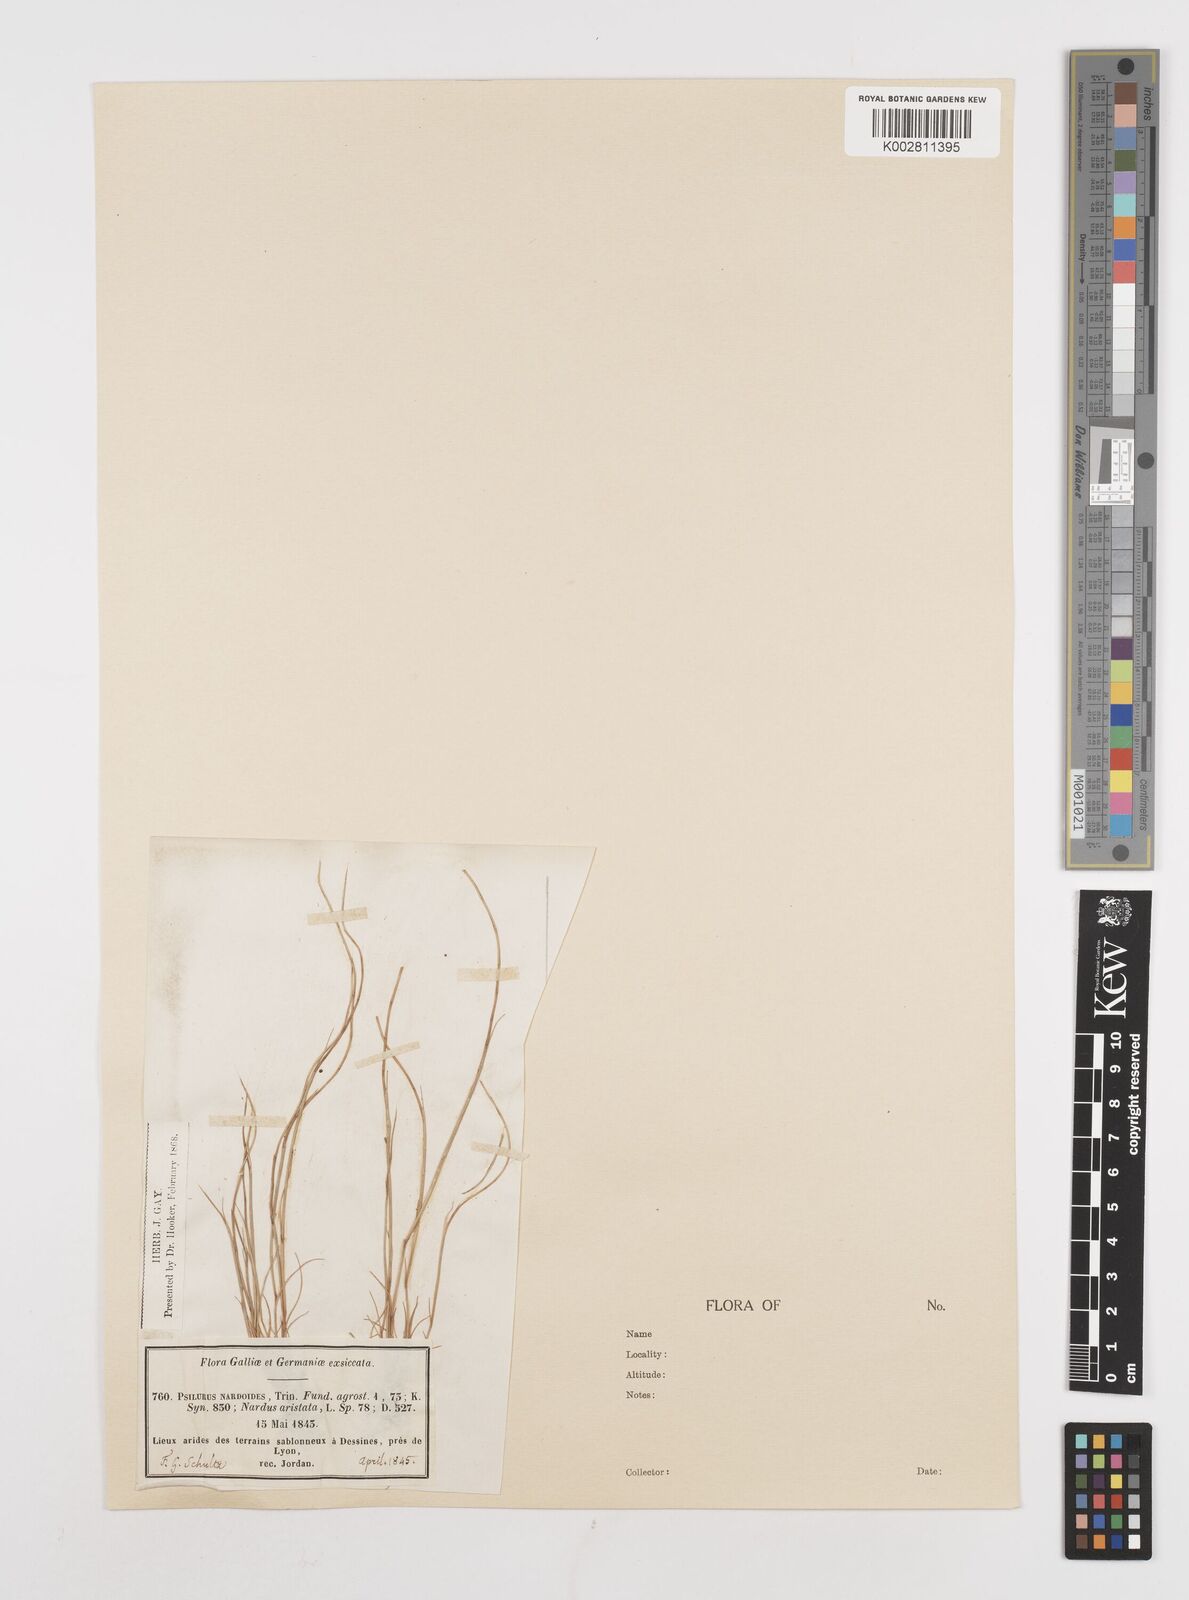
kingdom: Plantae
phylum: Tracheophyta
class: Liliopsida
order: Poales
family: Poaceae
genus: Festuca
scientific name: Festuca incurva
